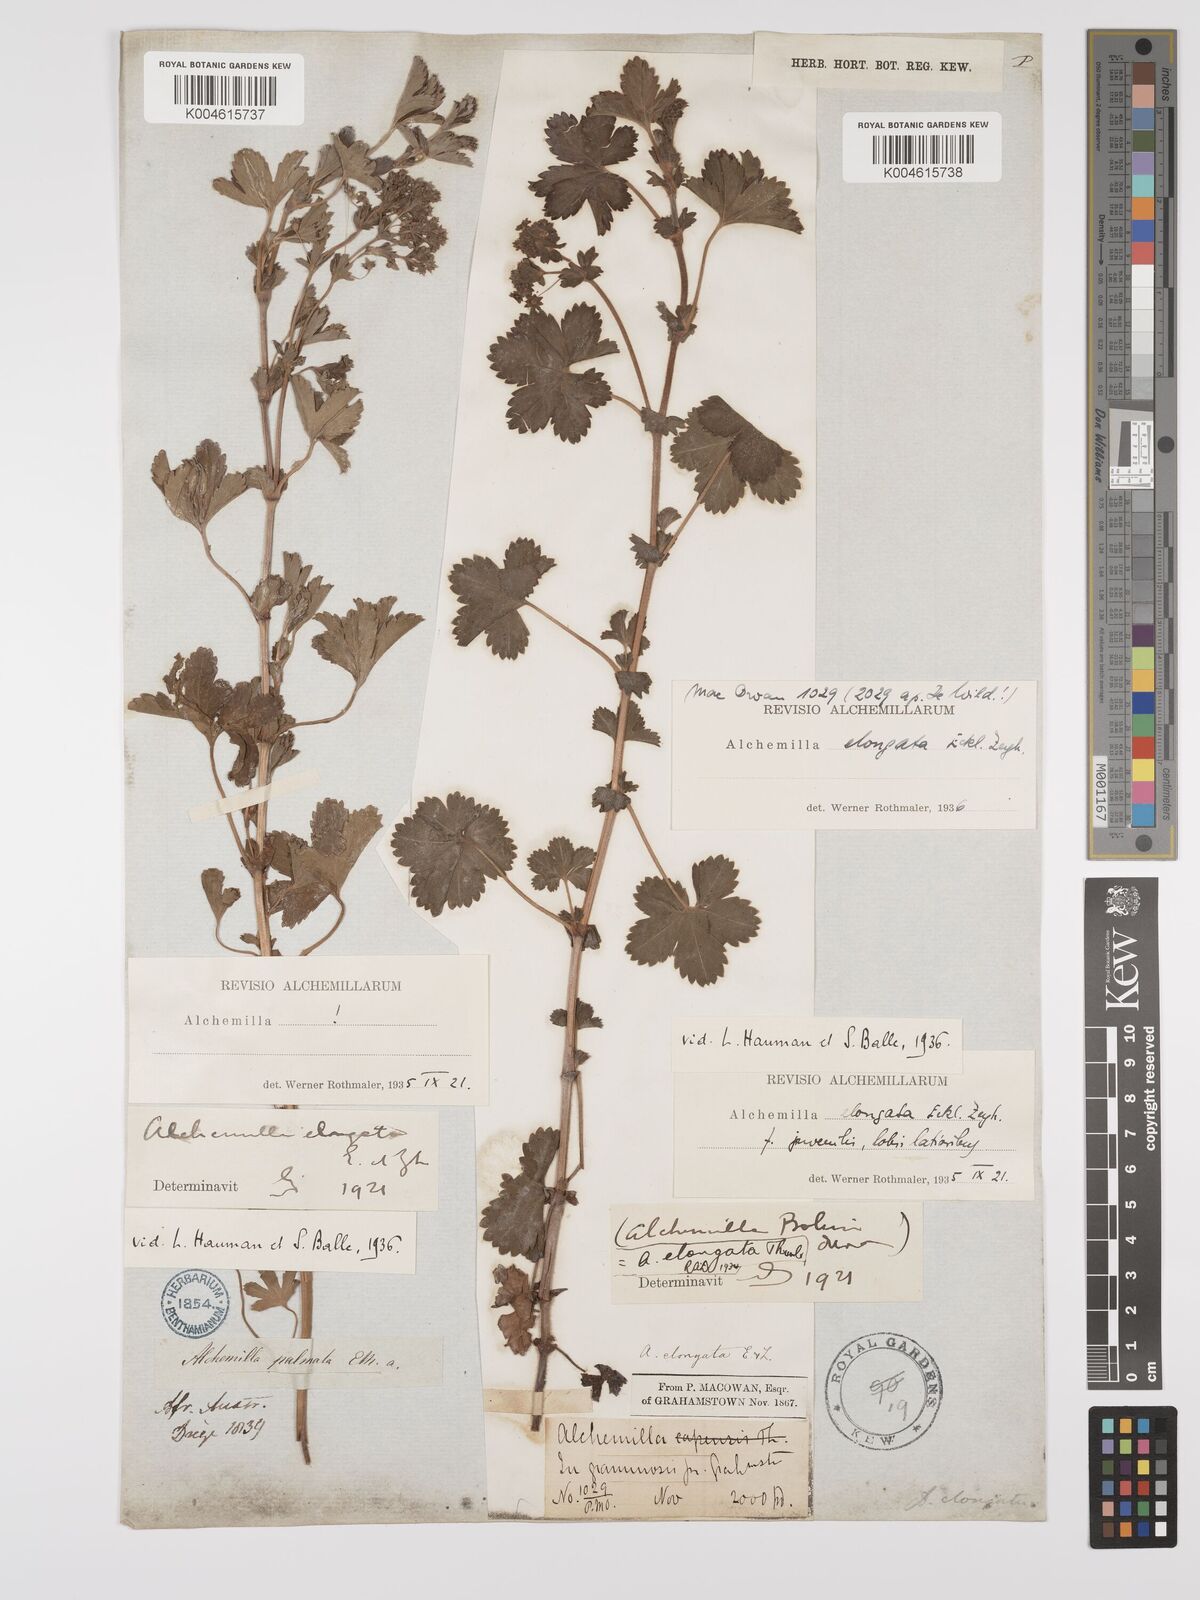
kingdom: Plantae
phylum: Tracheophyta
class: Magnoliopsida
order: Rosales
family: Rosaceae
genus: Alchemilla
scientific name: Alchemilla elongata
